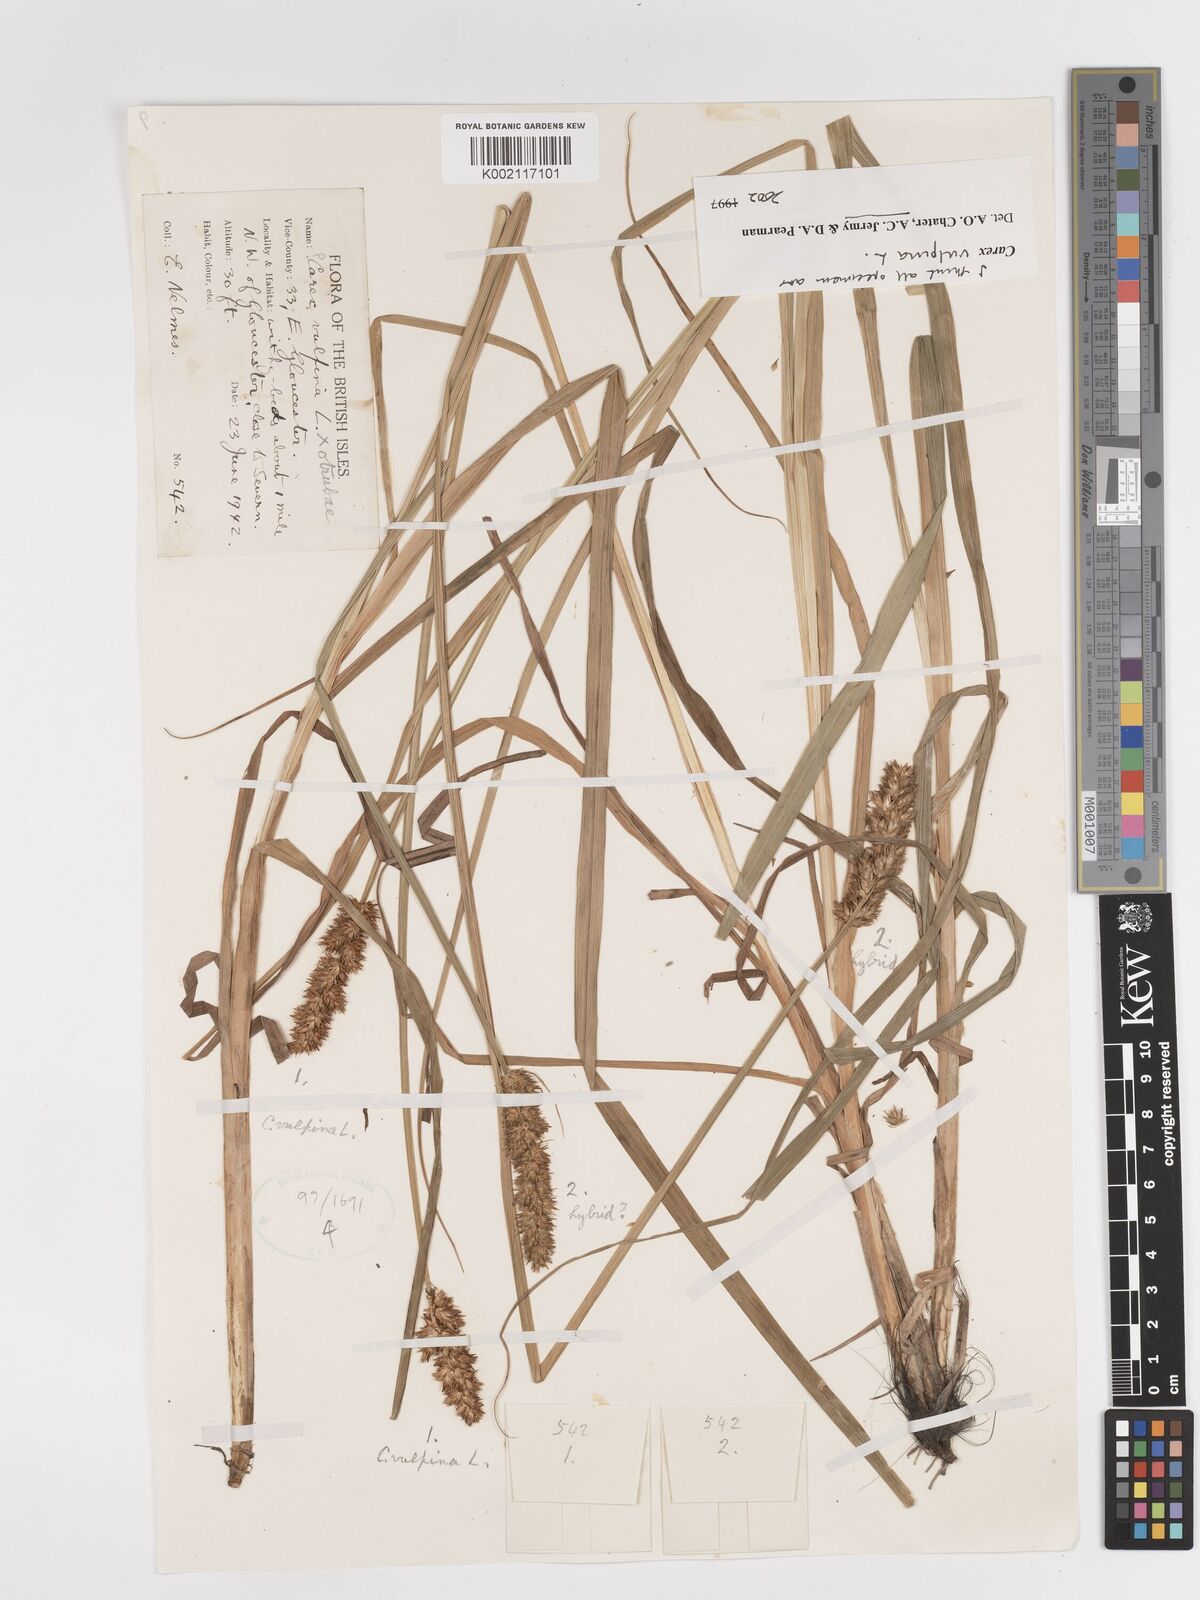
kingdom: Plantae
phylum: Tracheophyta
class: Liliopsida
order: Poales
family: Cyperaceae
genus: Carex
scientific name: Carex vulpina
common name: True fox-sedge
